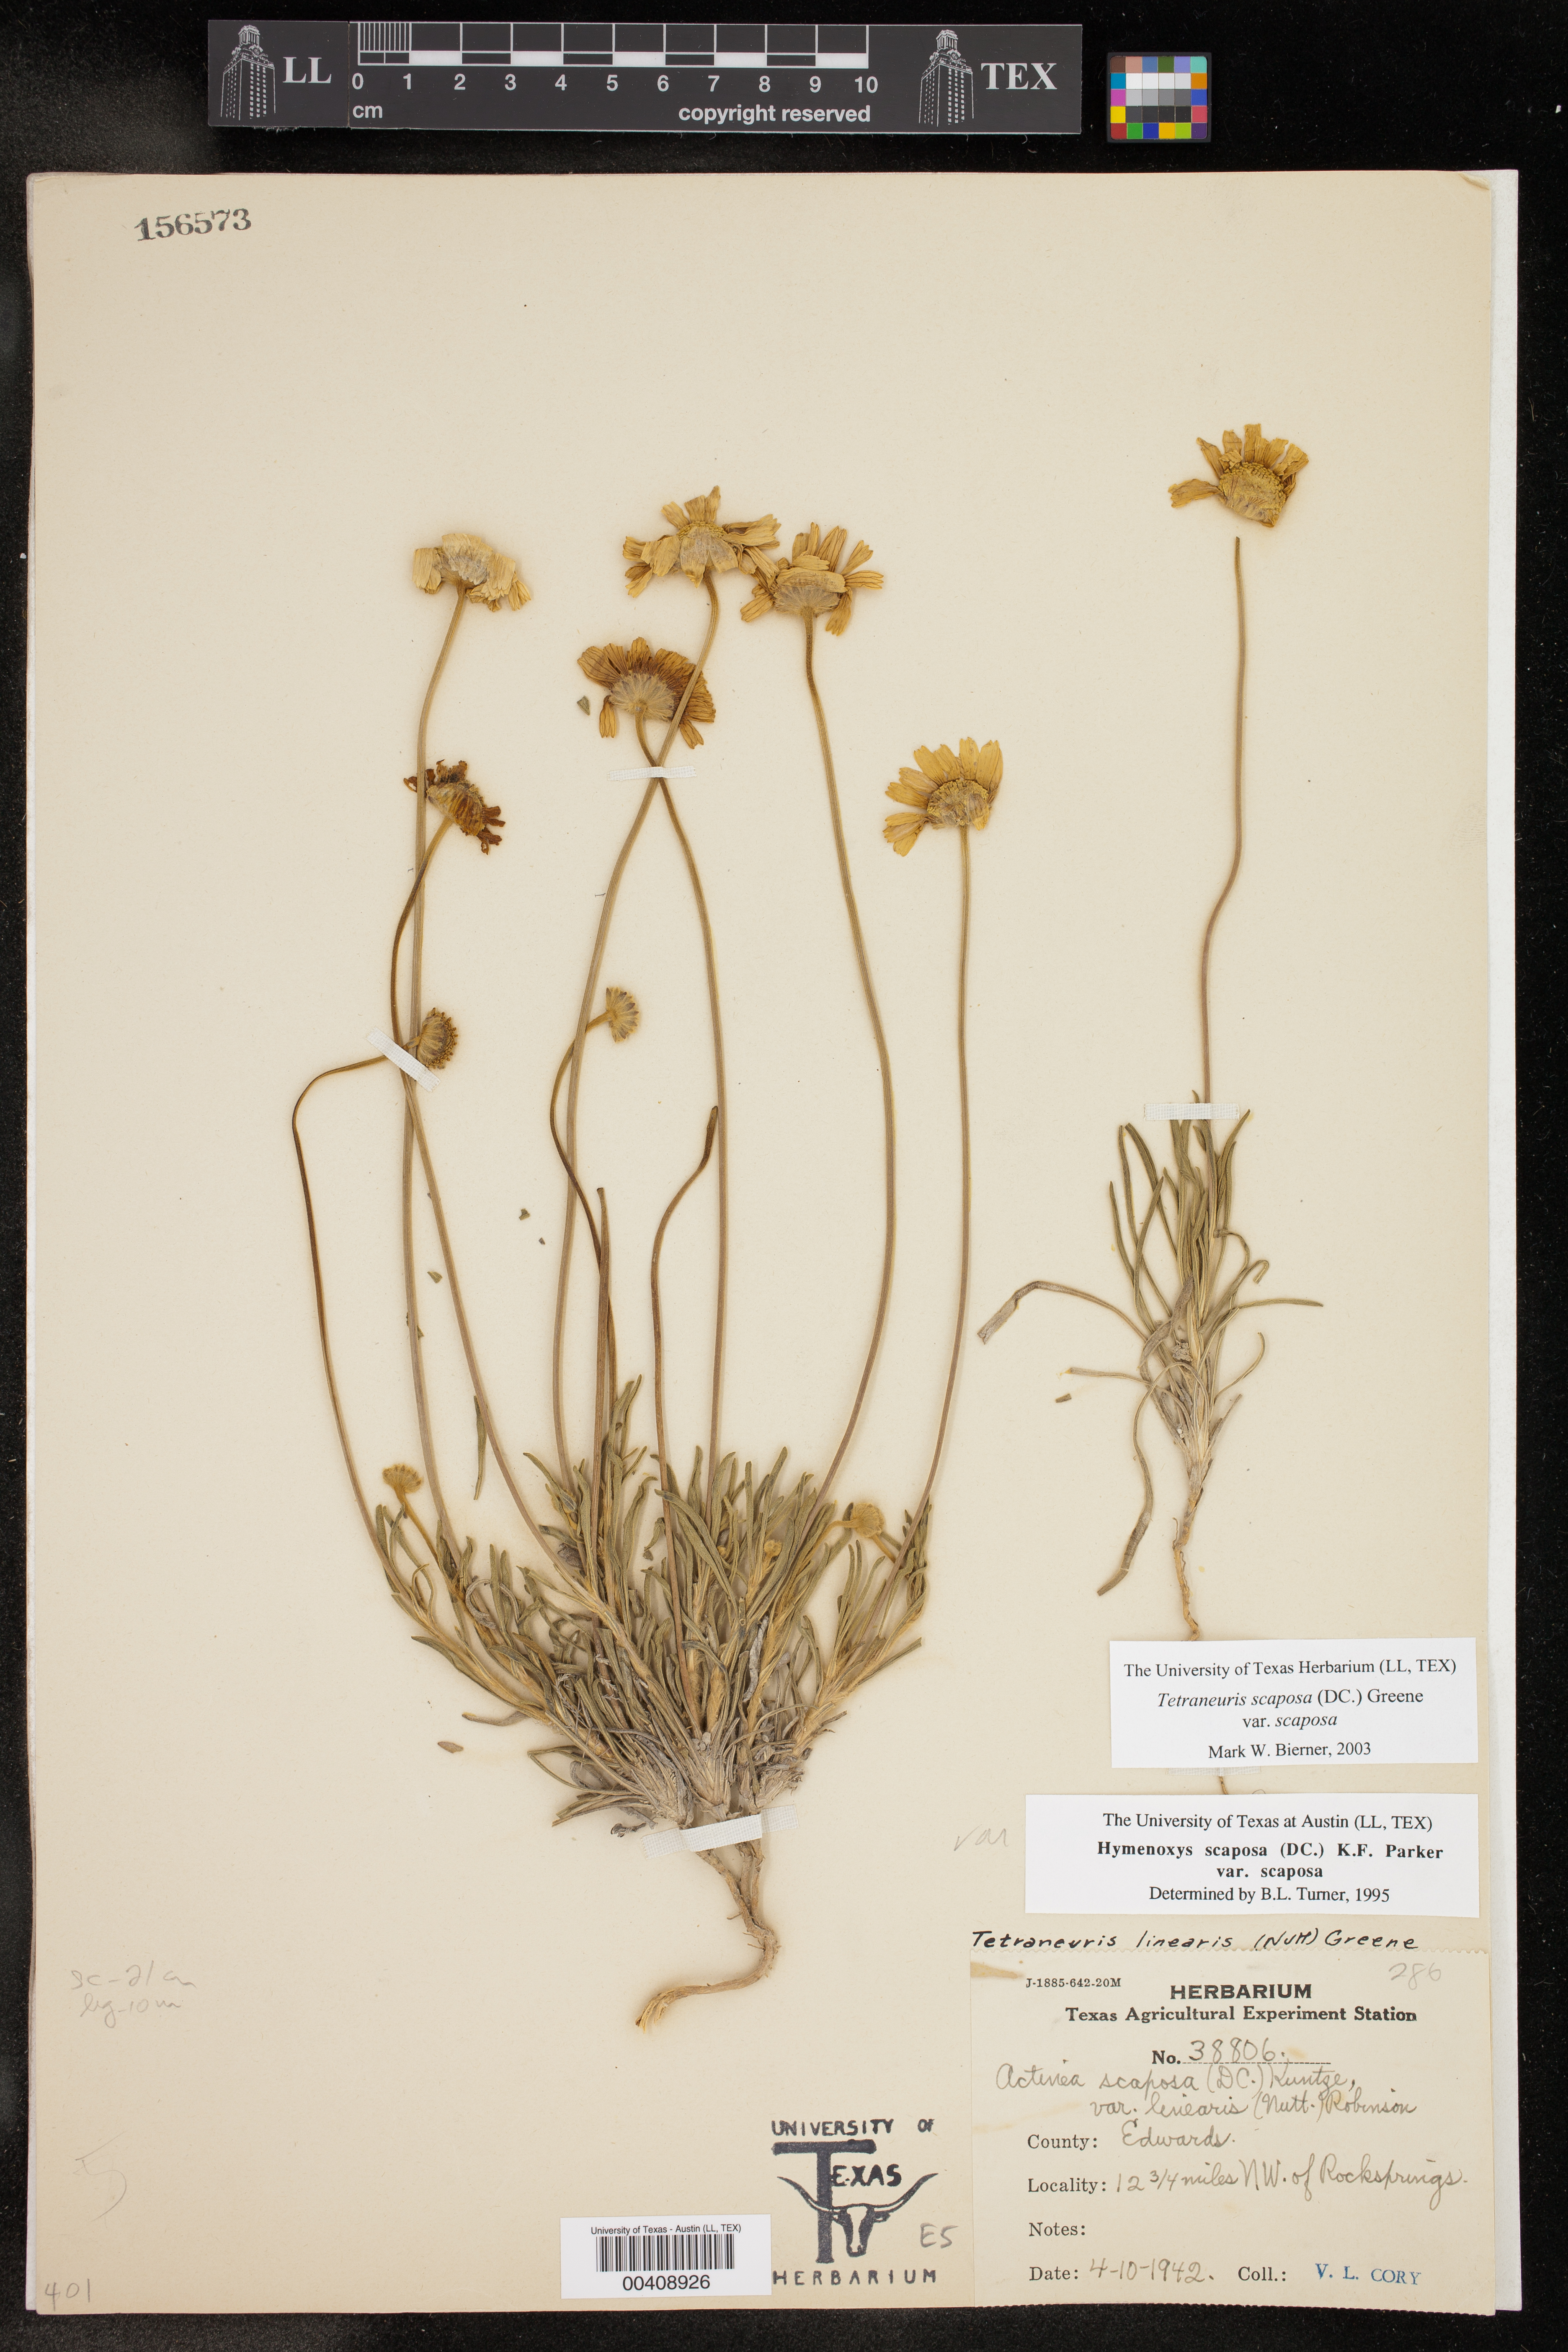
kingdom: Plantae
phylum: Tracheophyta
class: Magnoliopsida
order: Asterales
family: Asteraceae
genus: Tetraneuris
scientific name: Tetraneuris scaposa
